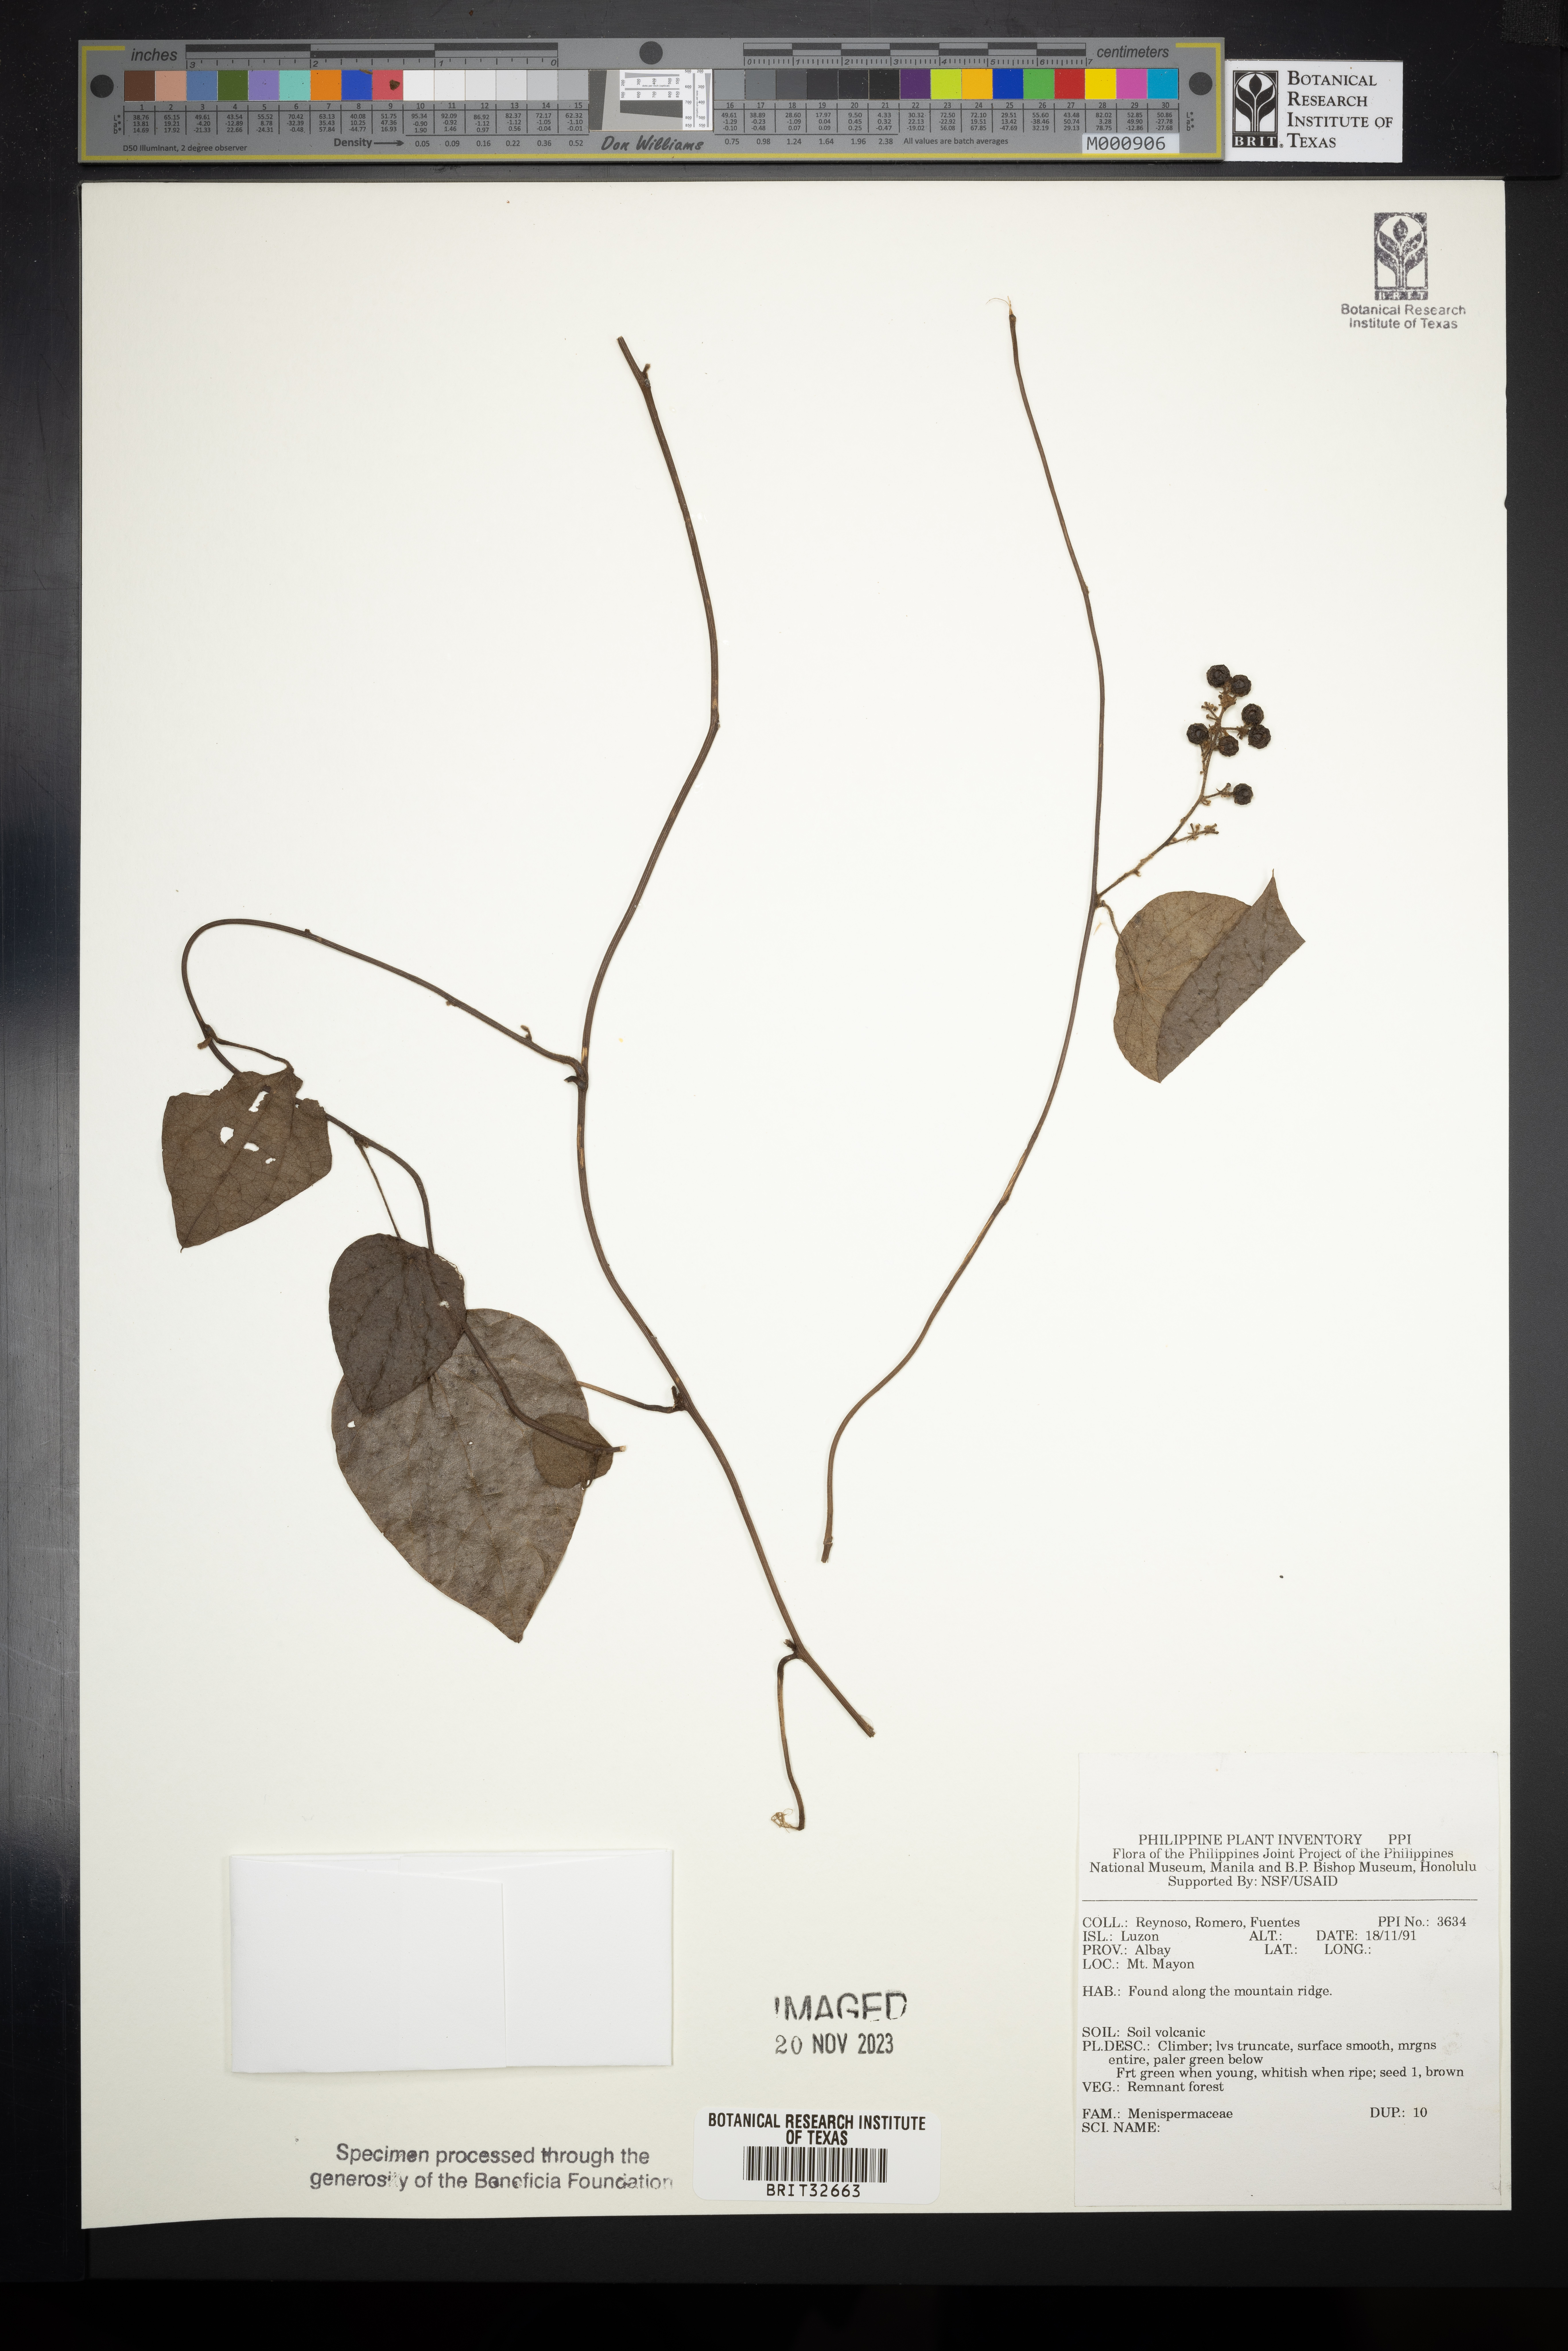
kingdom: Plantae
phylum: Tracheophyta
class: Magnoliopsida
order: Ranunculales
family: Menispermaceae
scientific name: Menispermaceae
